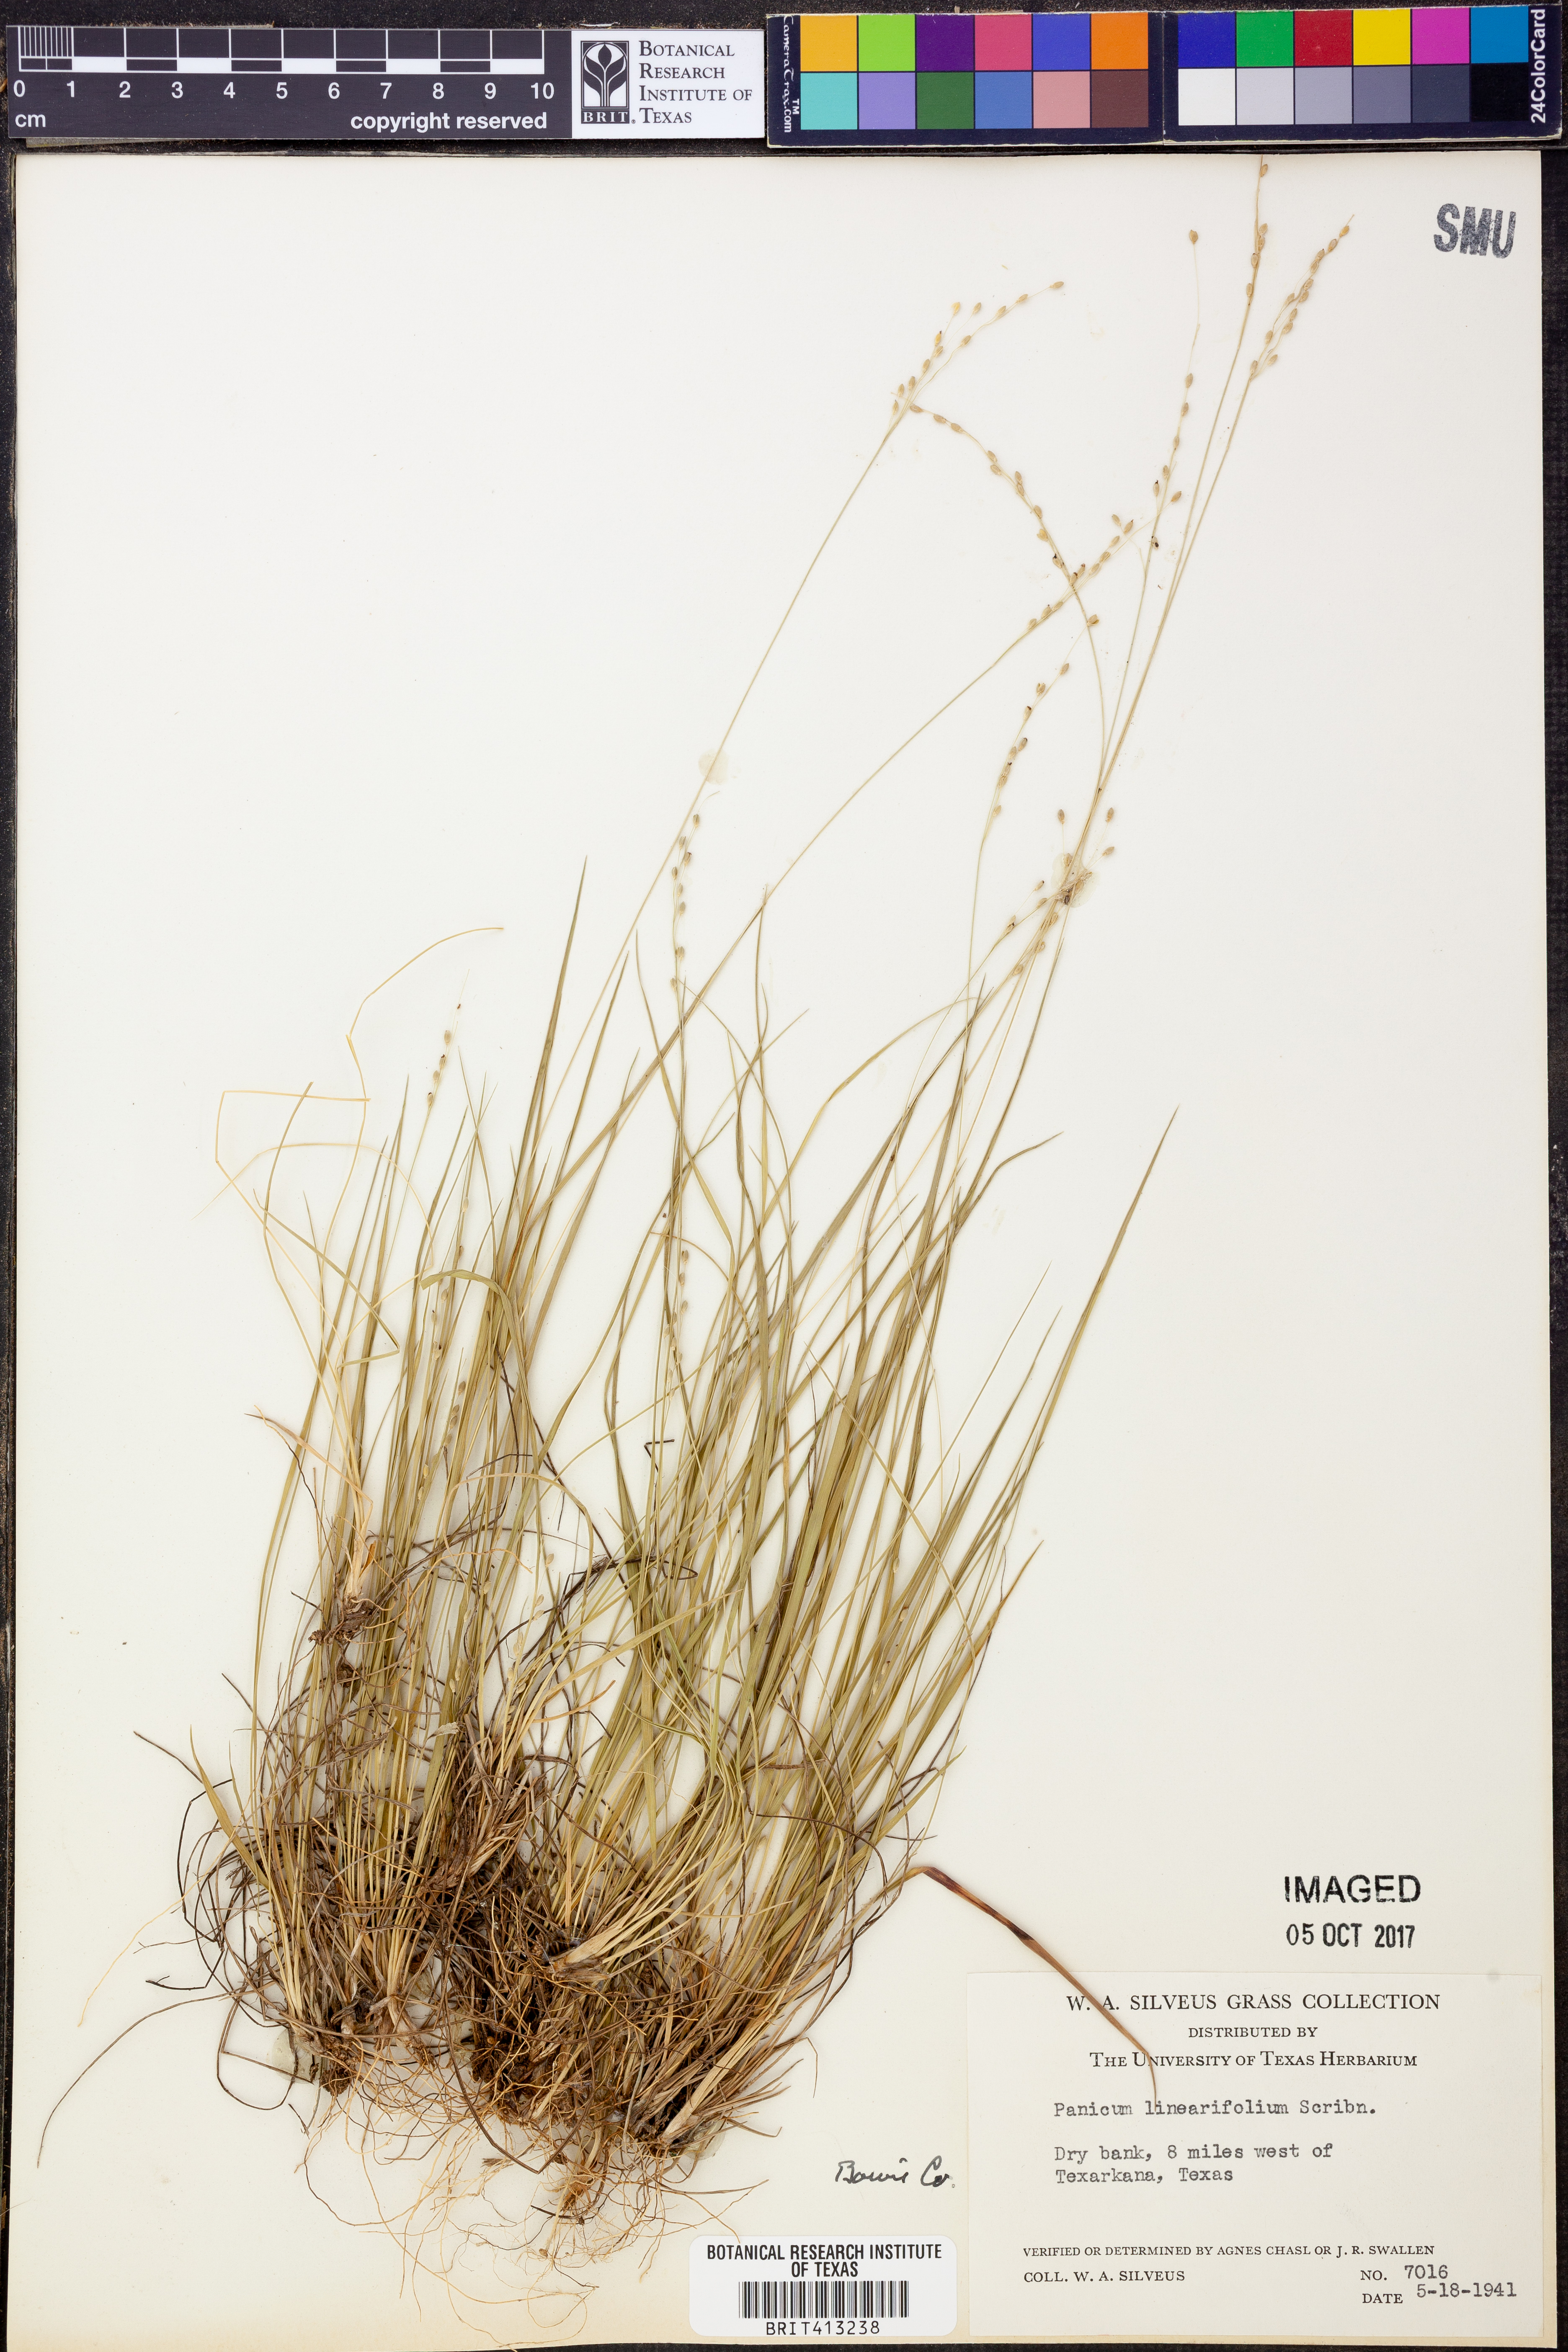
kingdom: Plantae
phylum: Tracheophyta
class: Liliopsida
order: Poales
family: Poaceae
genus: Dichanthelium
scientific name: Dichanthelium linearifolium
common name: Linear-leaved panicgrass
